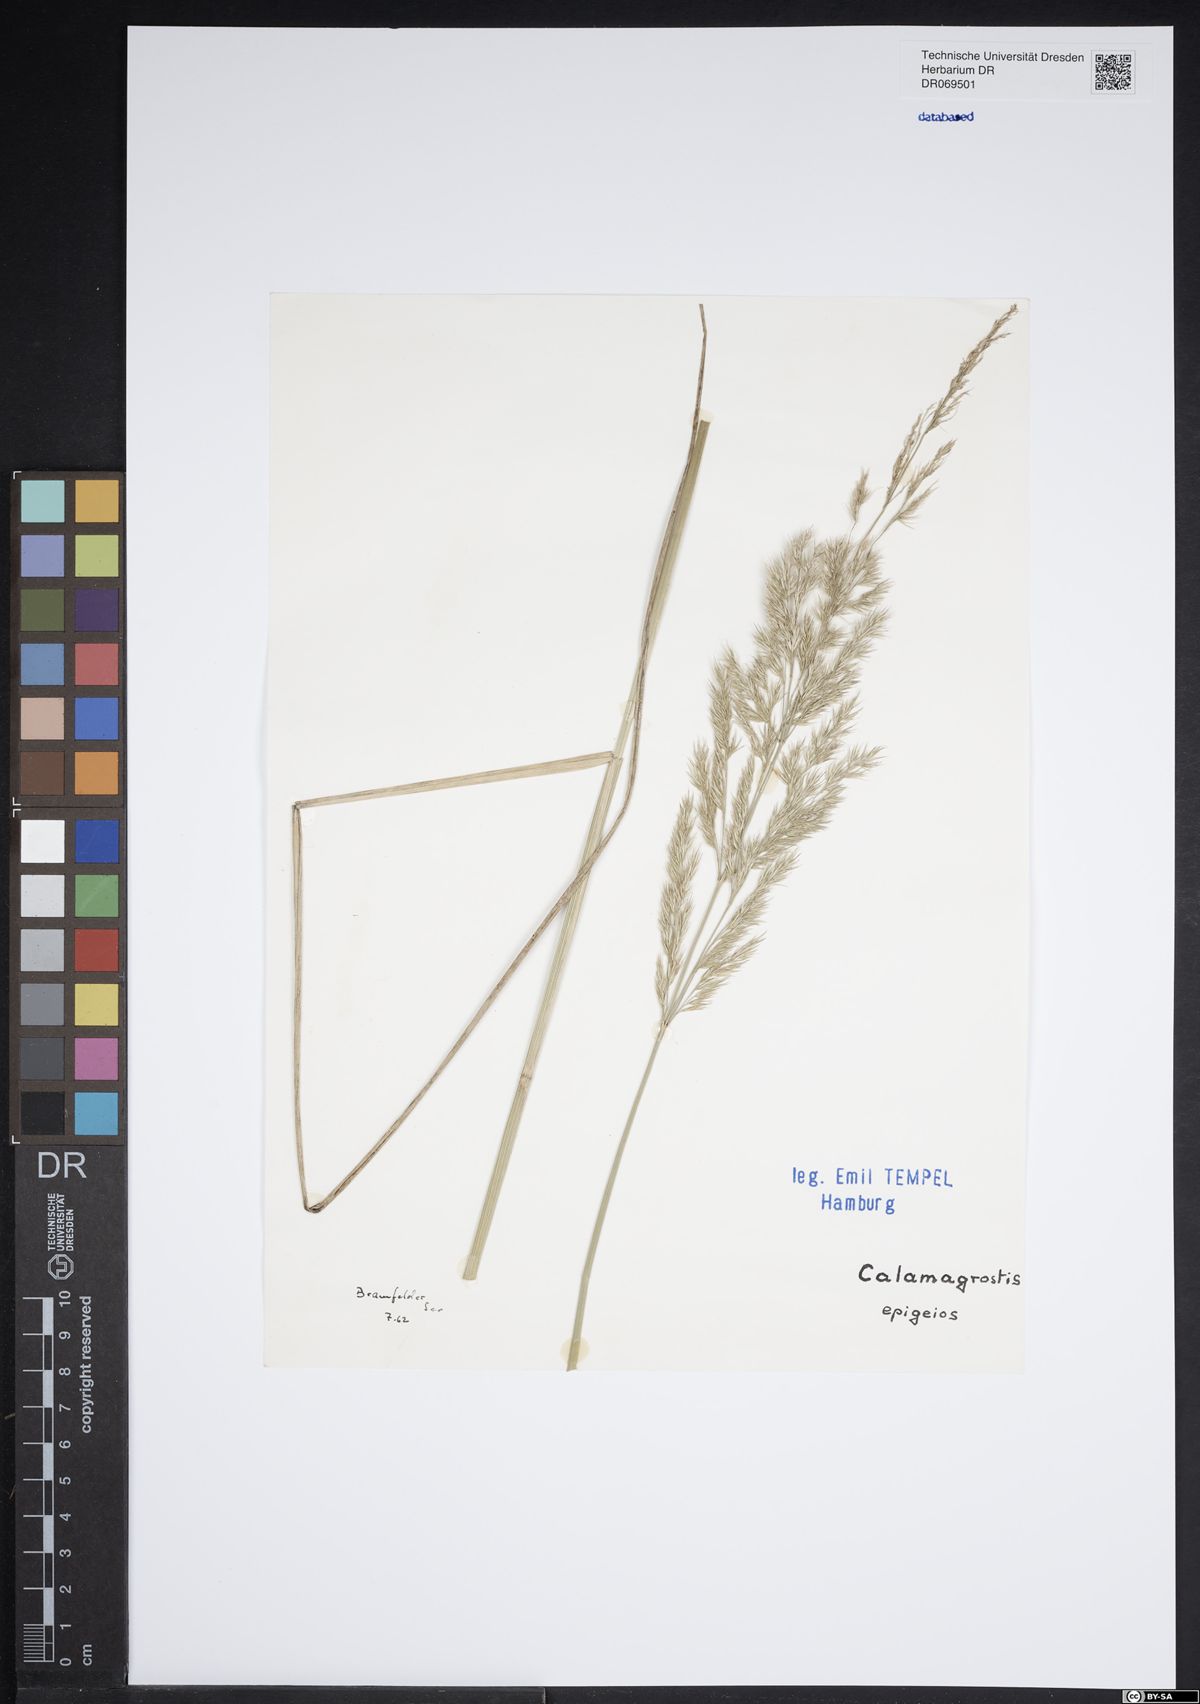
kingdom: Plantae
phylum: Tracheophyta
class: Liliopsida
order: Poales
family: Poaceae
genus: Calamagrostis
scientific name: Calamagrostis epigejos
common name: Wood small-reed
